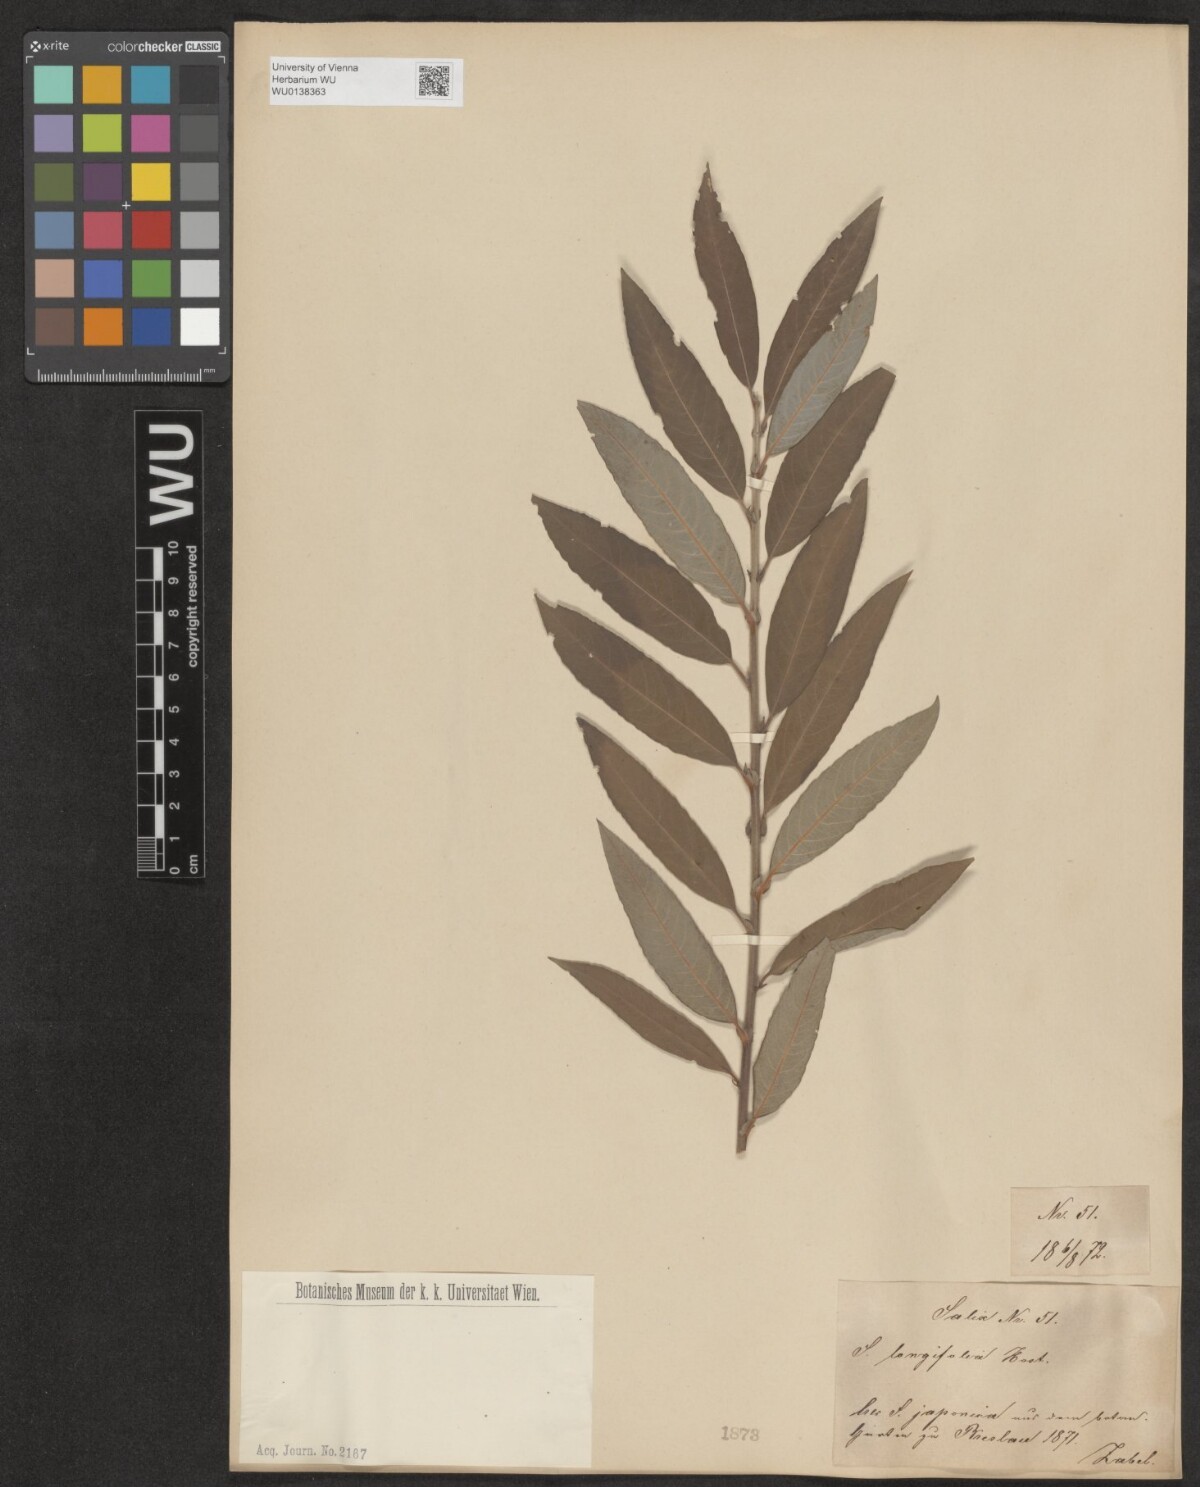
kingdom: Plantae
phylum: Tracheophyta
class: Magnoliopsida
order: Malpighiales
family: Salicaceae
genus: Salix
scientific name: Salix interior
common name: Sandbar willow
